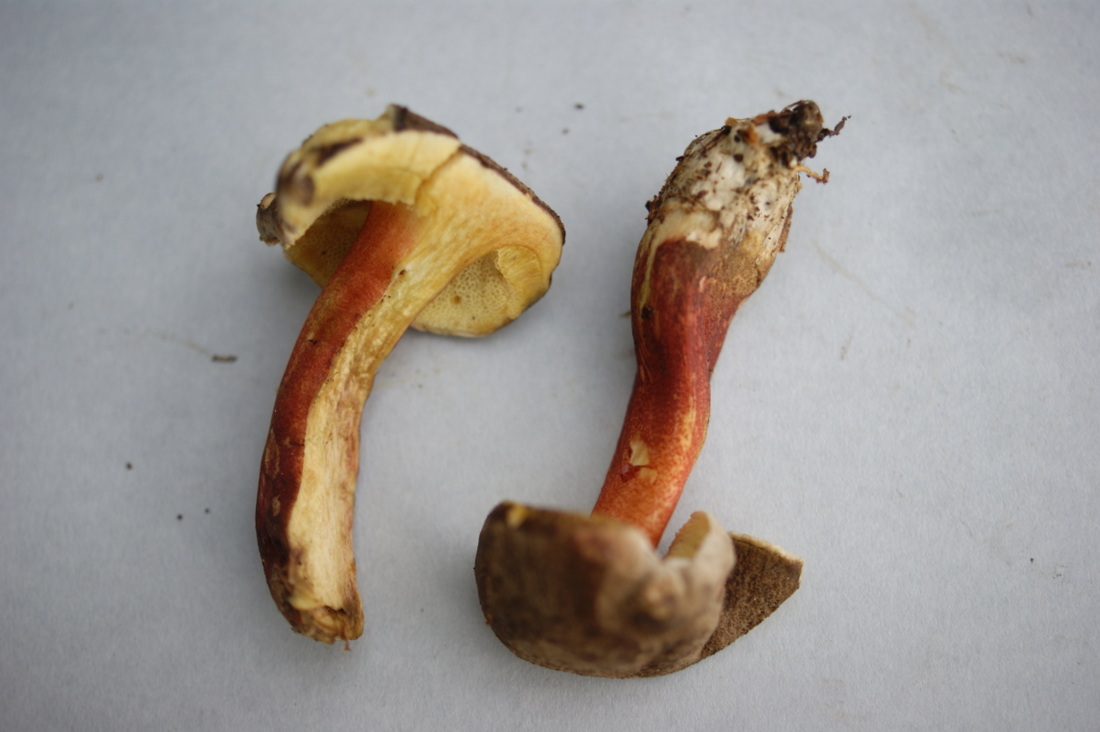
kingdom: Fungi
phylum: Basidiomycota
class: Agaricomycetes
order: Boletales
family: Boletaceae
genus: Xerocomellus
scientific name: Xerocomellus chrysenteron
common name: rødsprukken rørhat
